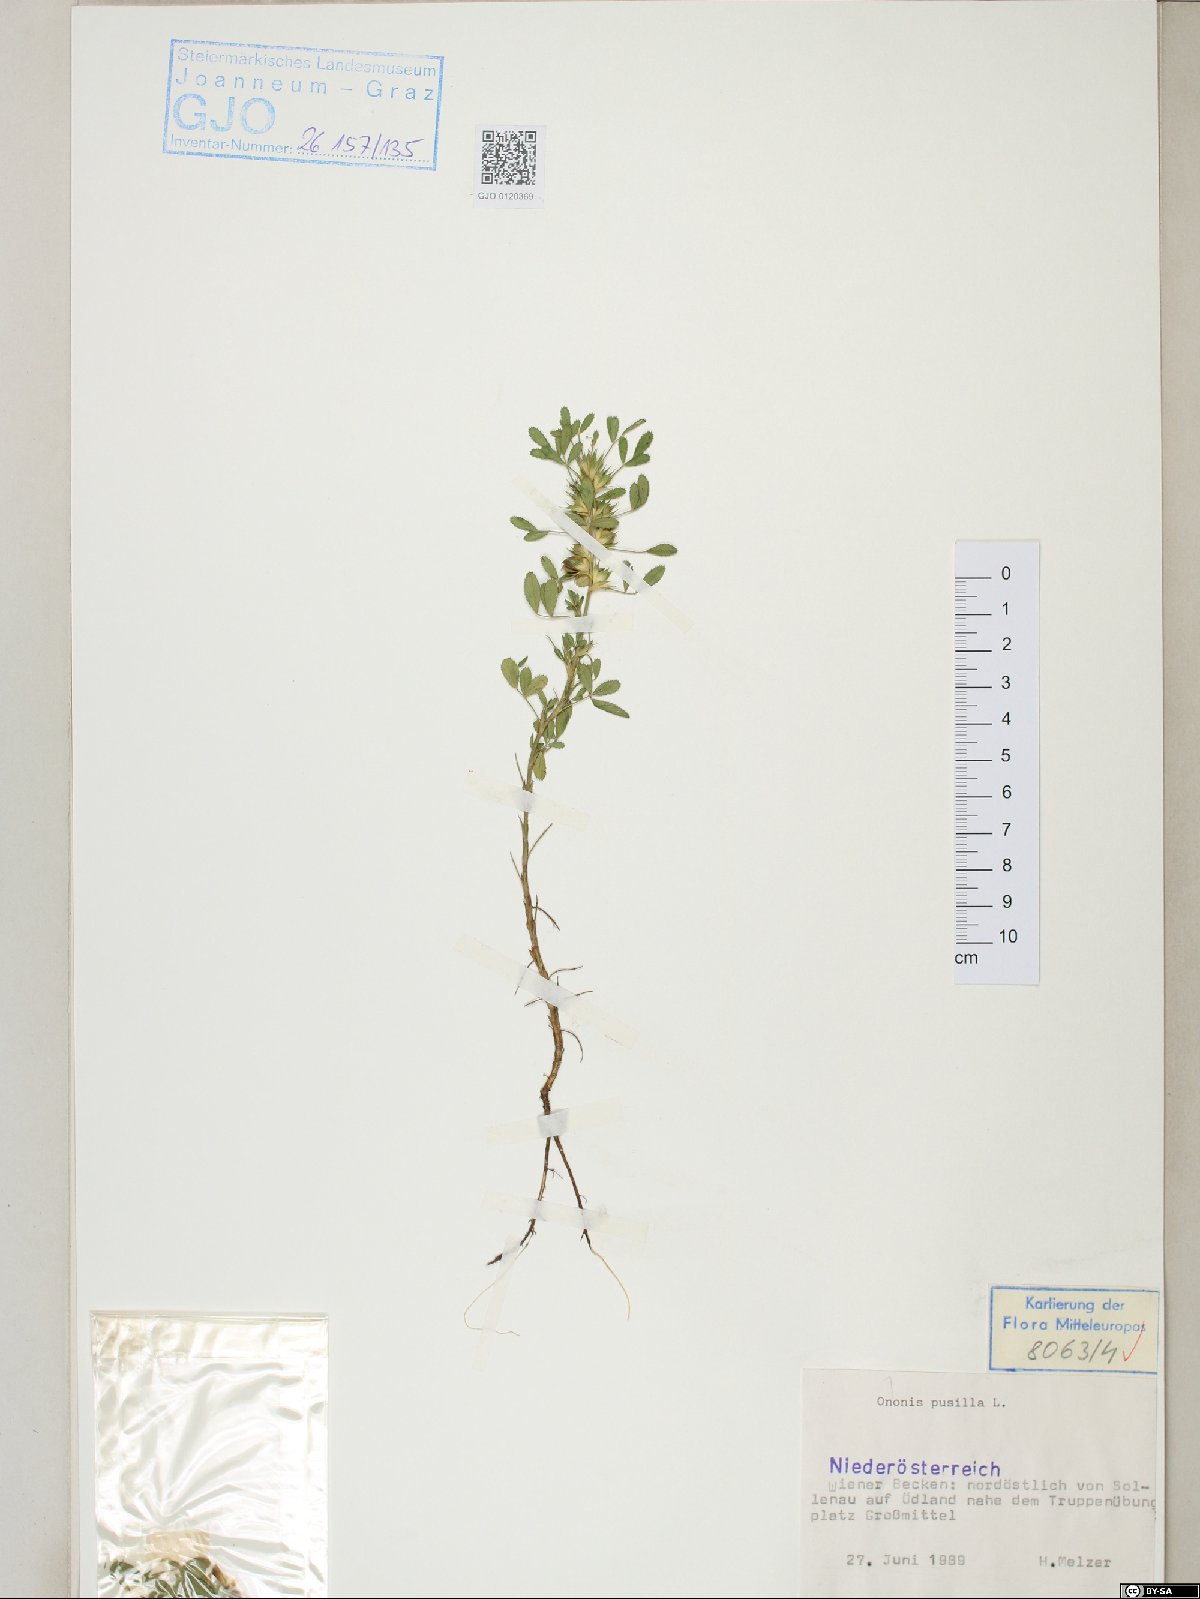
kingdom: Plantae
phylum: Tracheophyta
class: Magnoliopsida
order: Fabales
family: Fabaceae
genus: Ononis
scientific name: Ononis pusilla
